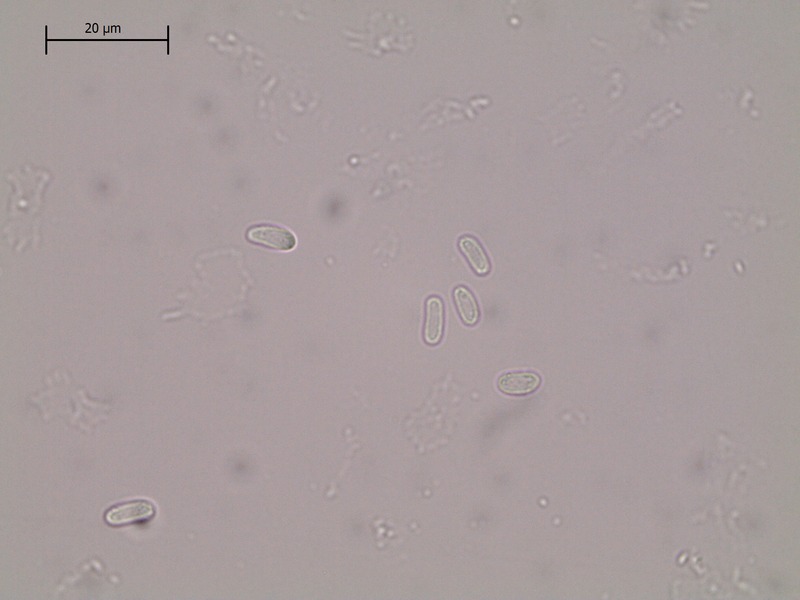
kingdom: Fungi
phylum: Ascomycota
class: Dothideomycetes
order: Botryosphaeriales
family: Phyllostictaceae
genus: Phyllosticta
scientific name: Phyllosticta zahlbruckneri
